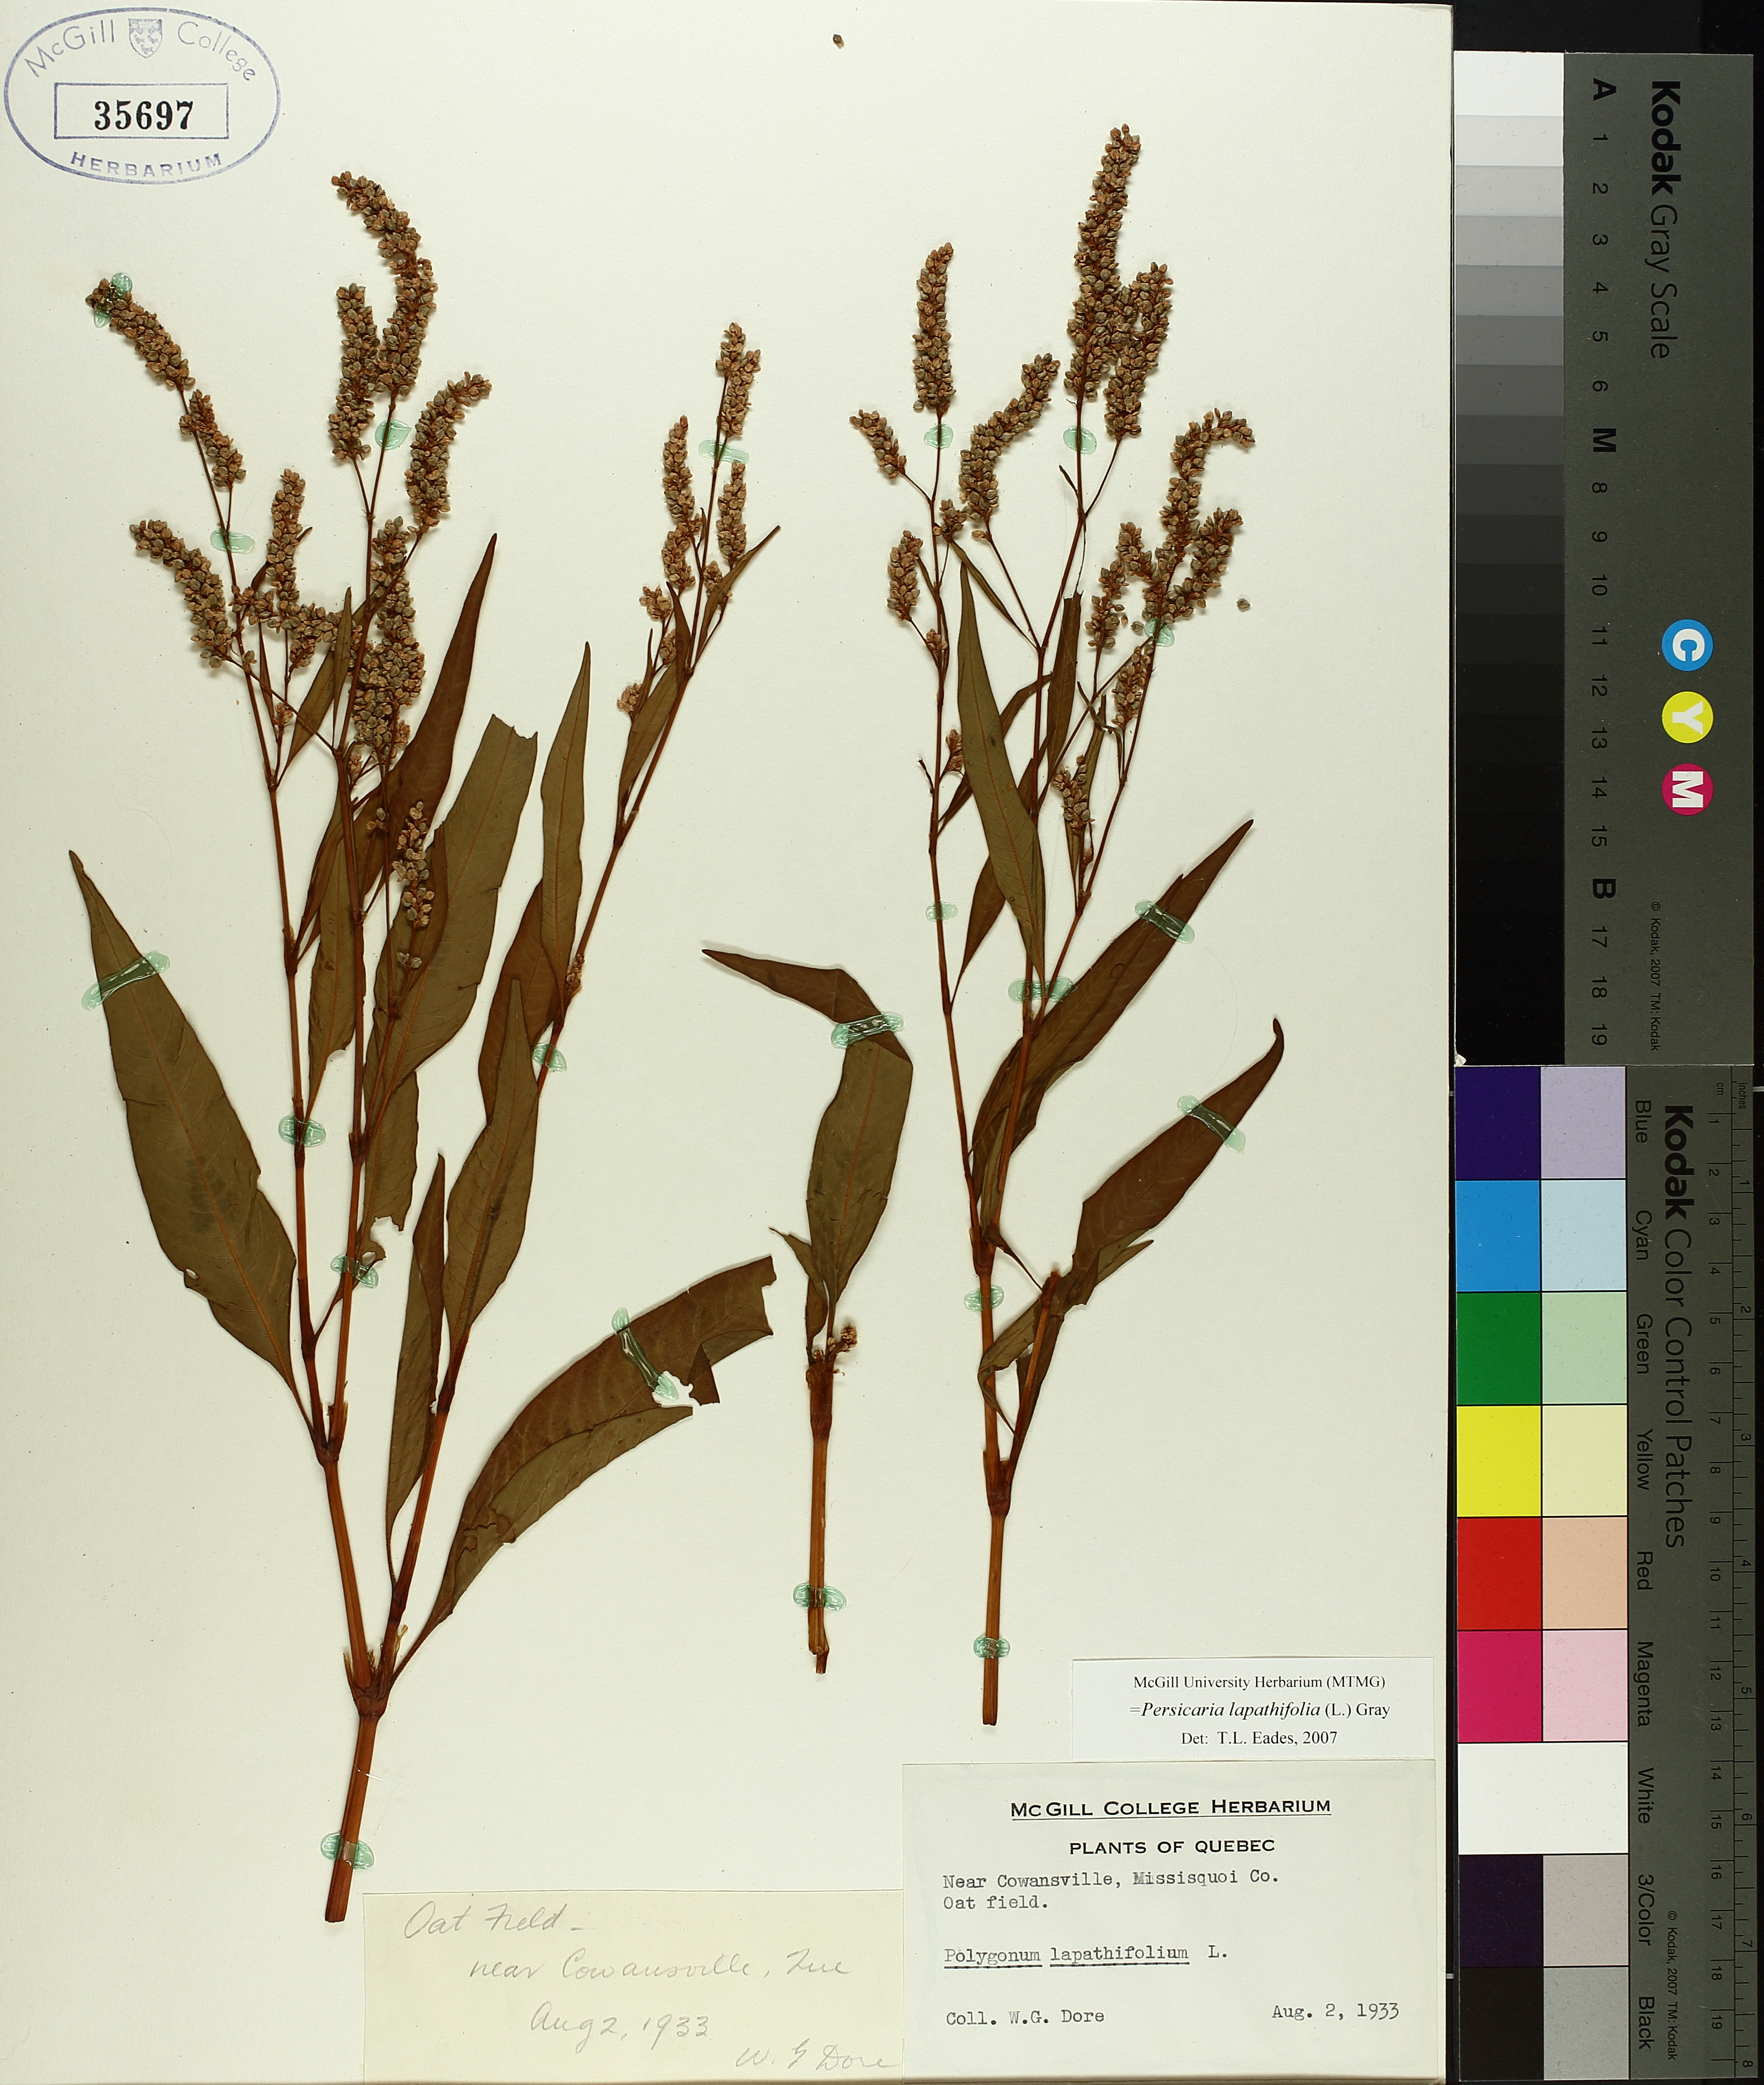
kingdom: Plantae
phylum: Tracheophyta
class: Magnoliopsida
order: Caryophyllales
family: Polygonaceae
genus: Persicaria
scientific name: Persicaria lapathifolia
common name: Curlytop knotweed
